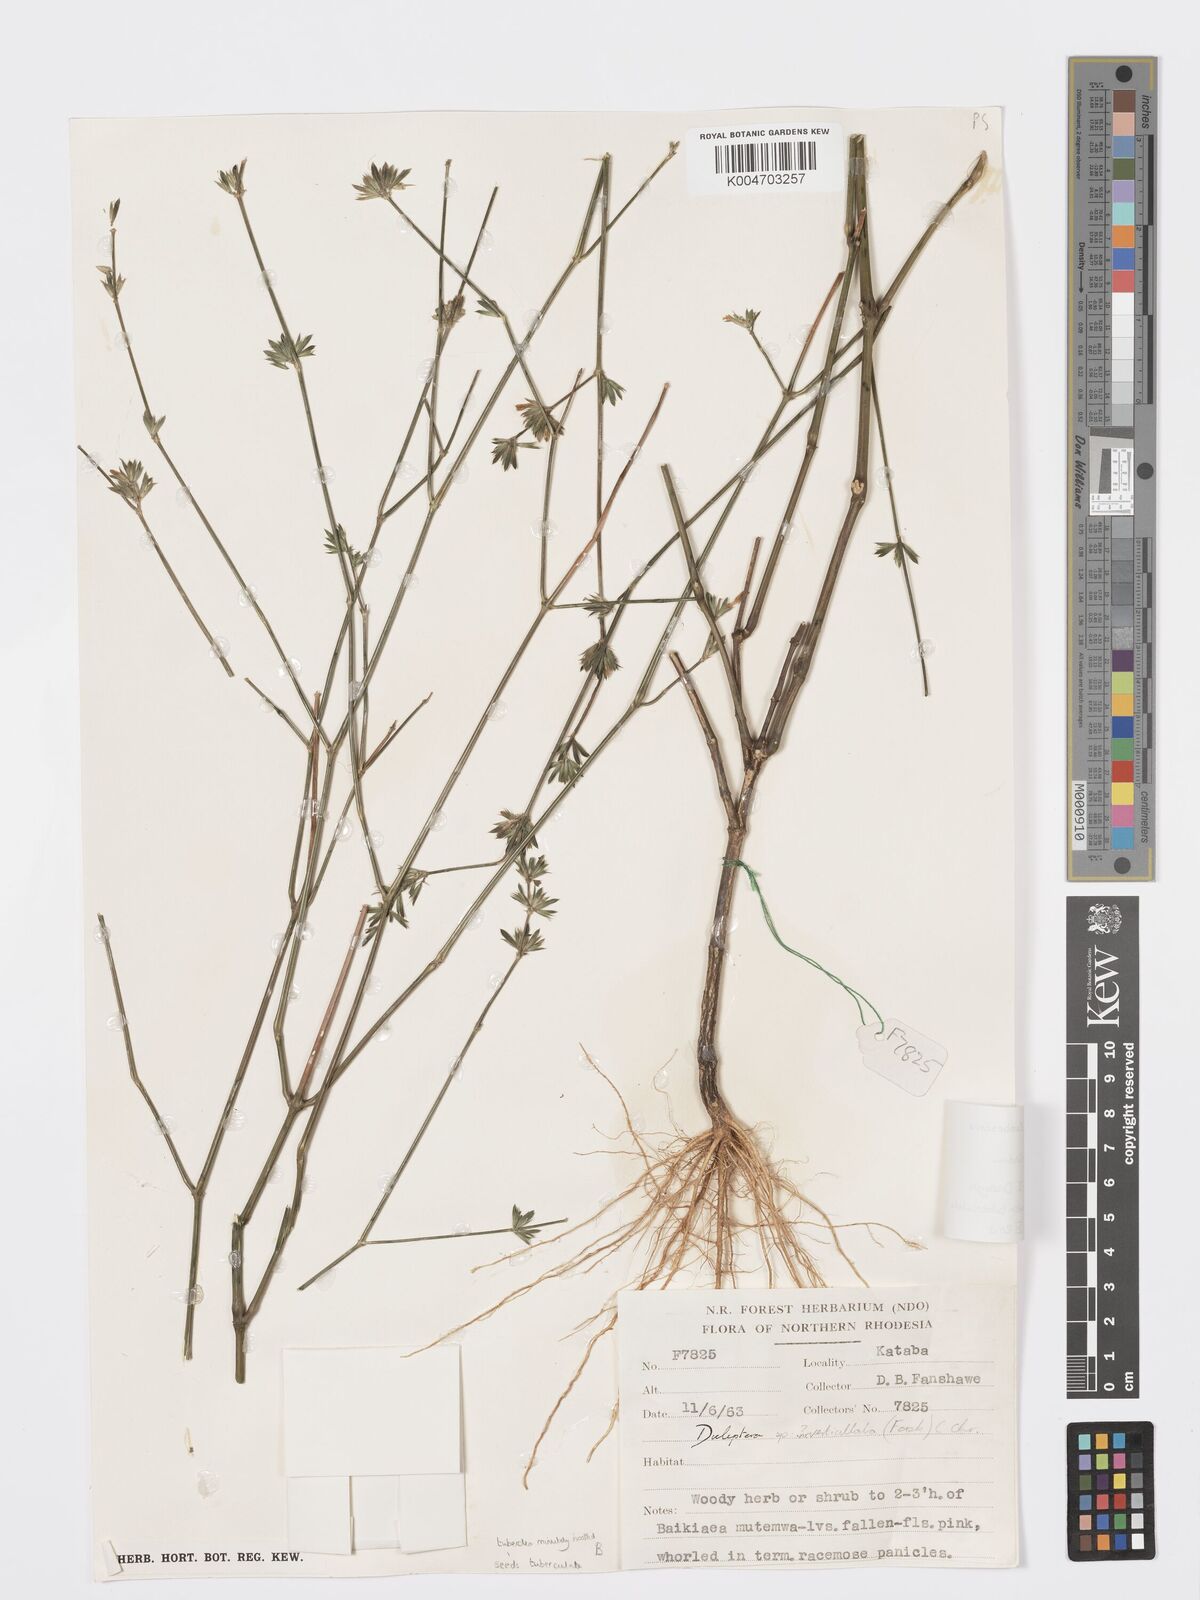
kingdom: Plantae
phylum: Tracheophyta
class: Magnoliopsida
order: Lamiales
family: Acanthaceae
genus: Dicliptera
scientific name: Dicliptera carvalhoi
